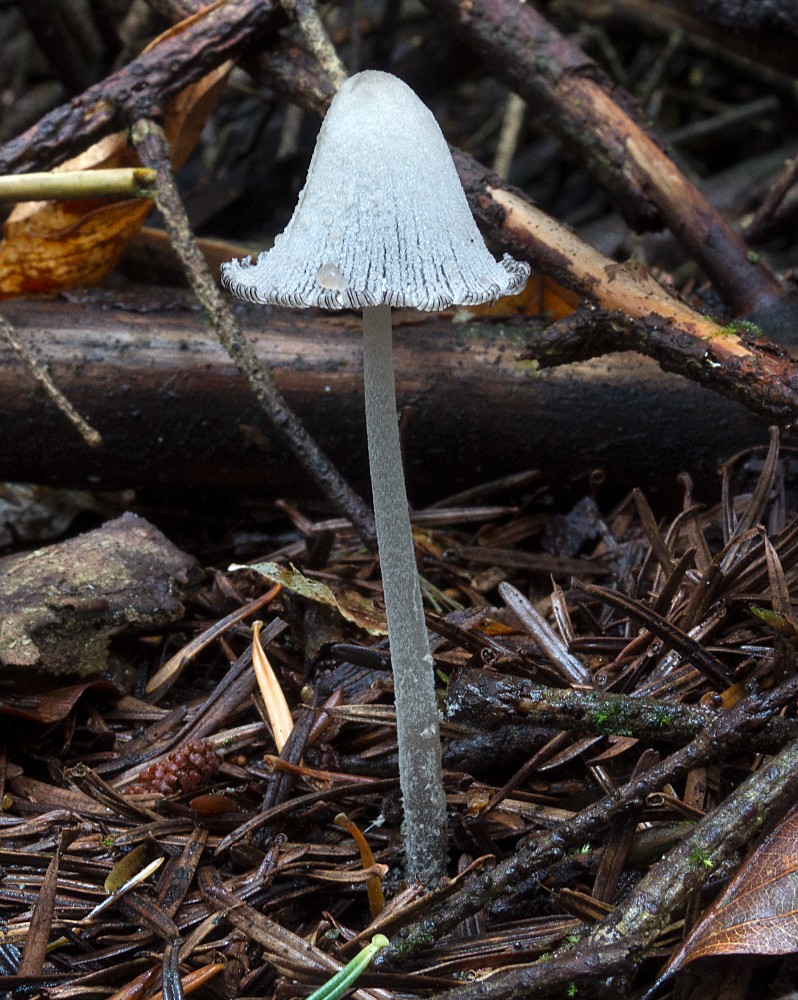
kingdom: Fungi
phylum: Basidiomycota
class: Agaricomycetes
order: Agaricales
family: Psathyrellaceae
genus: Coprinopsis
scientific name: Coprinopsis laanii
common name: stub-blækhat
